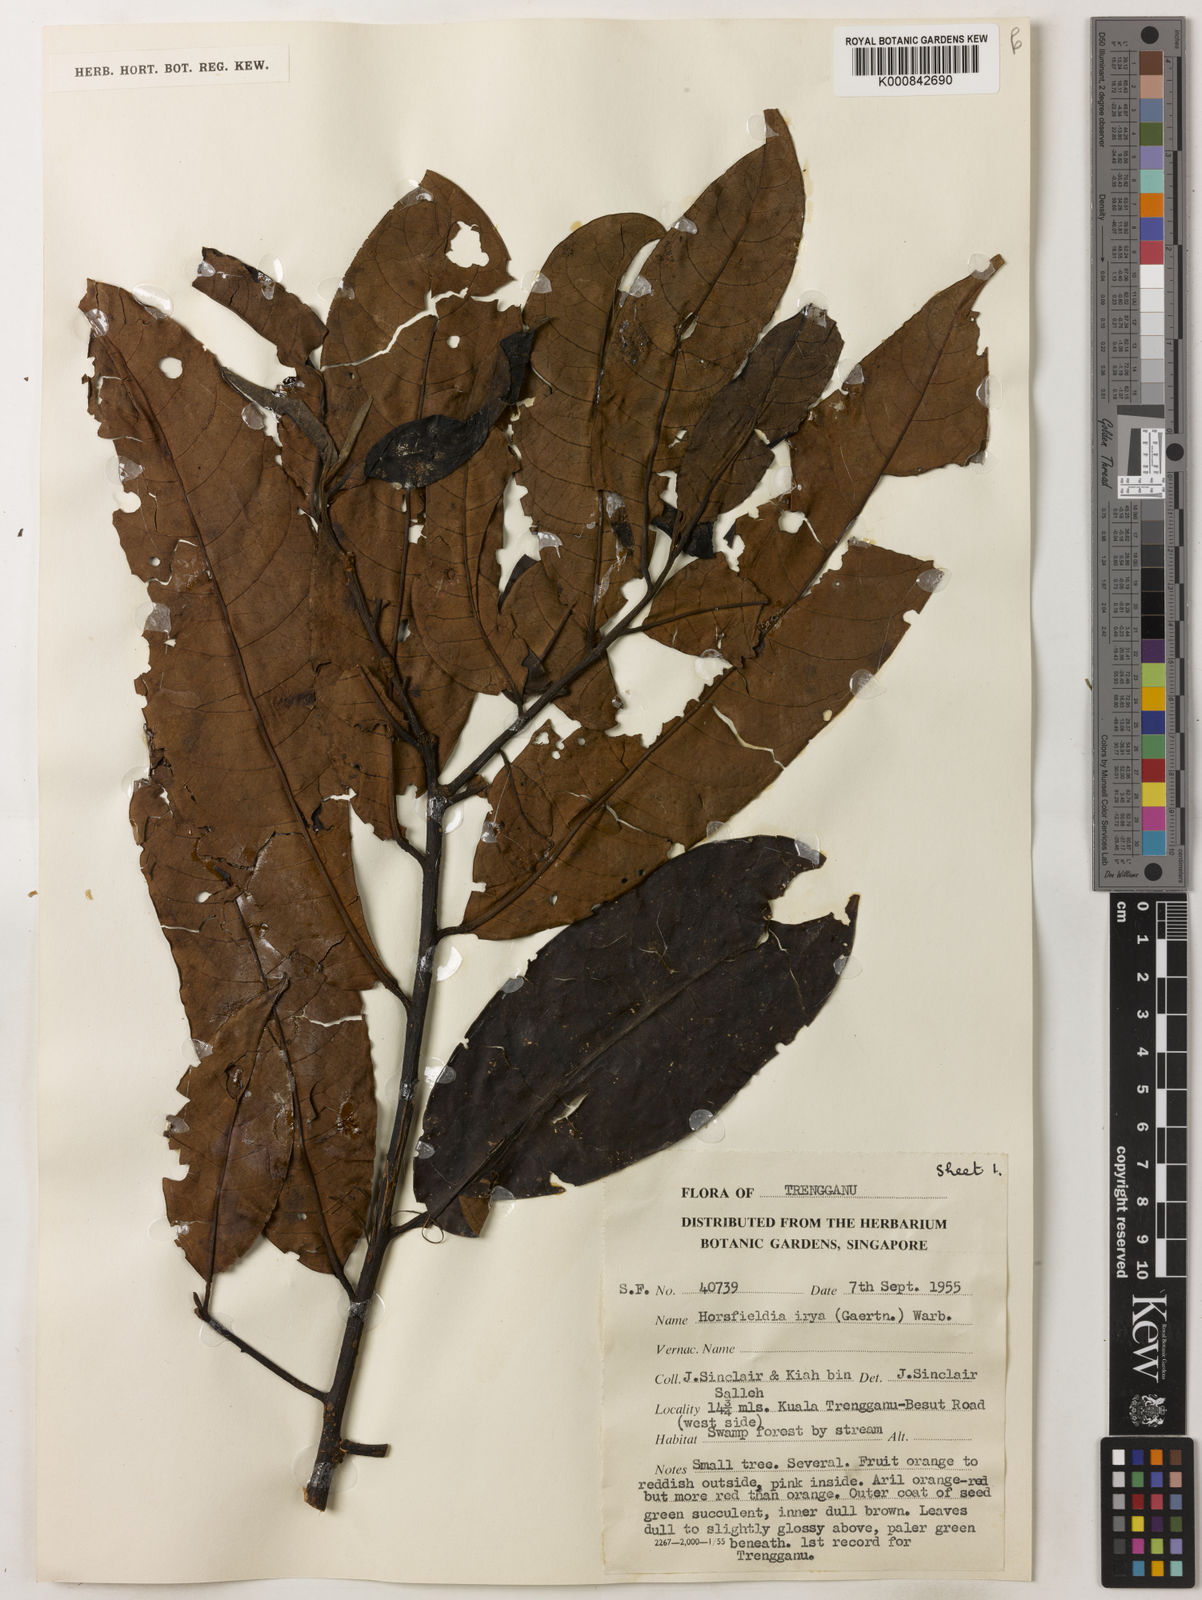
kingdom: Plantae
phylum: Tracheophyta
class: Magnoliopsida
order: Magnoliales
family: Myristicaceae
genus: Horsfieldia
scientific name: Horsfieldia irya
